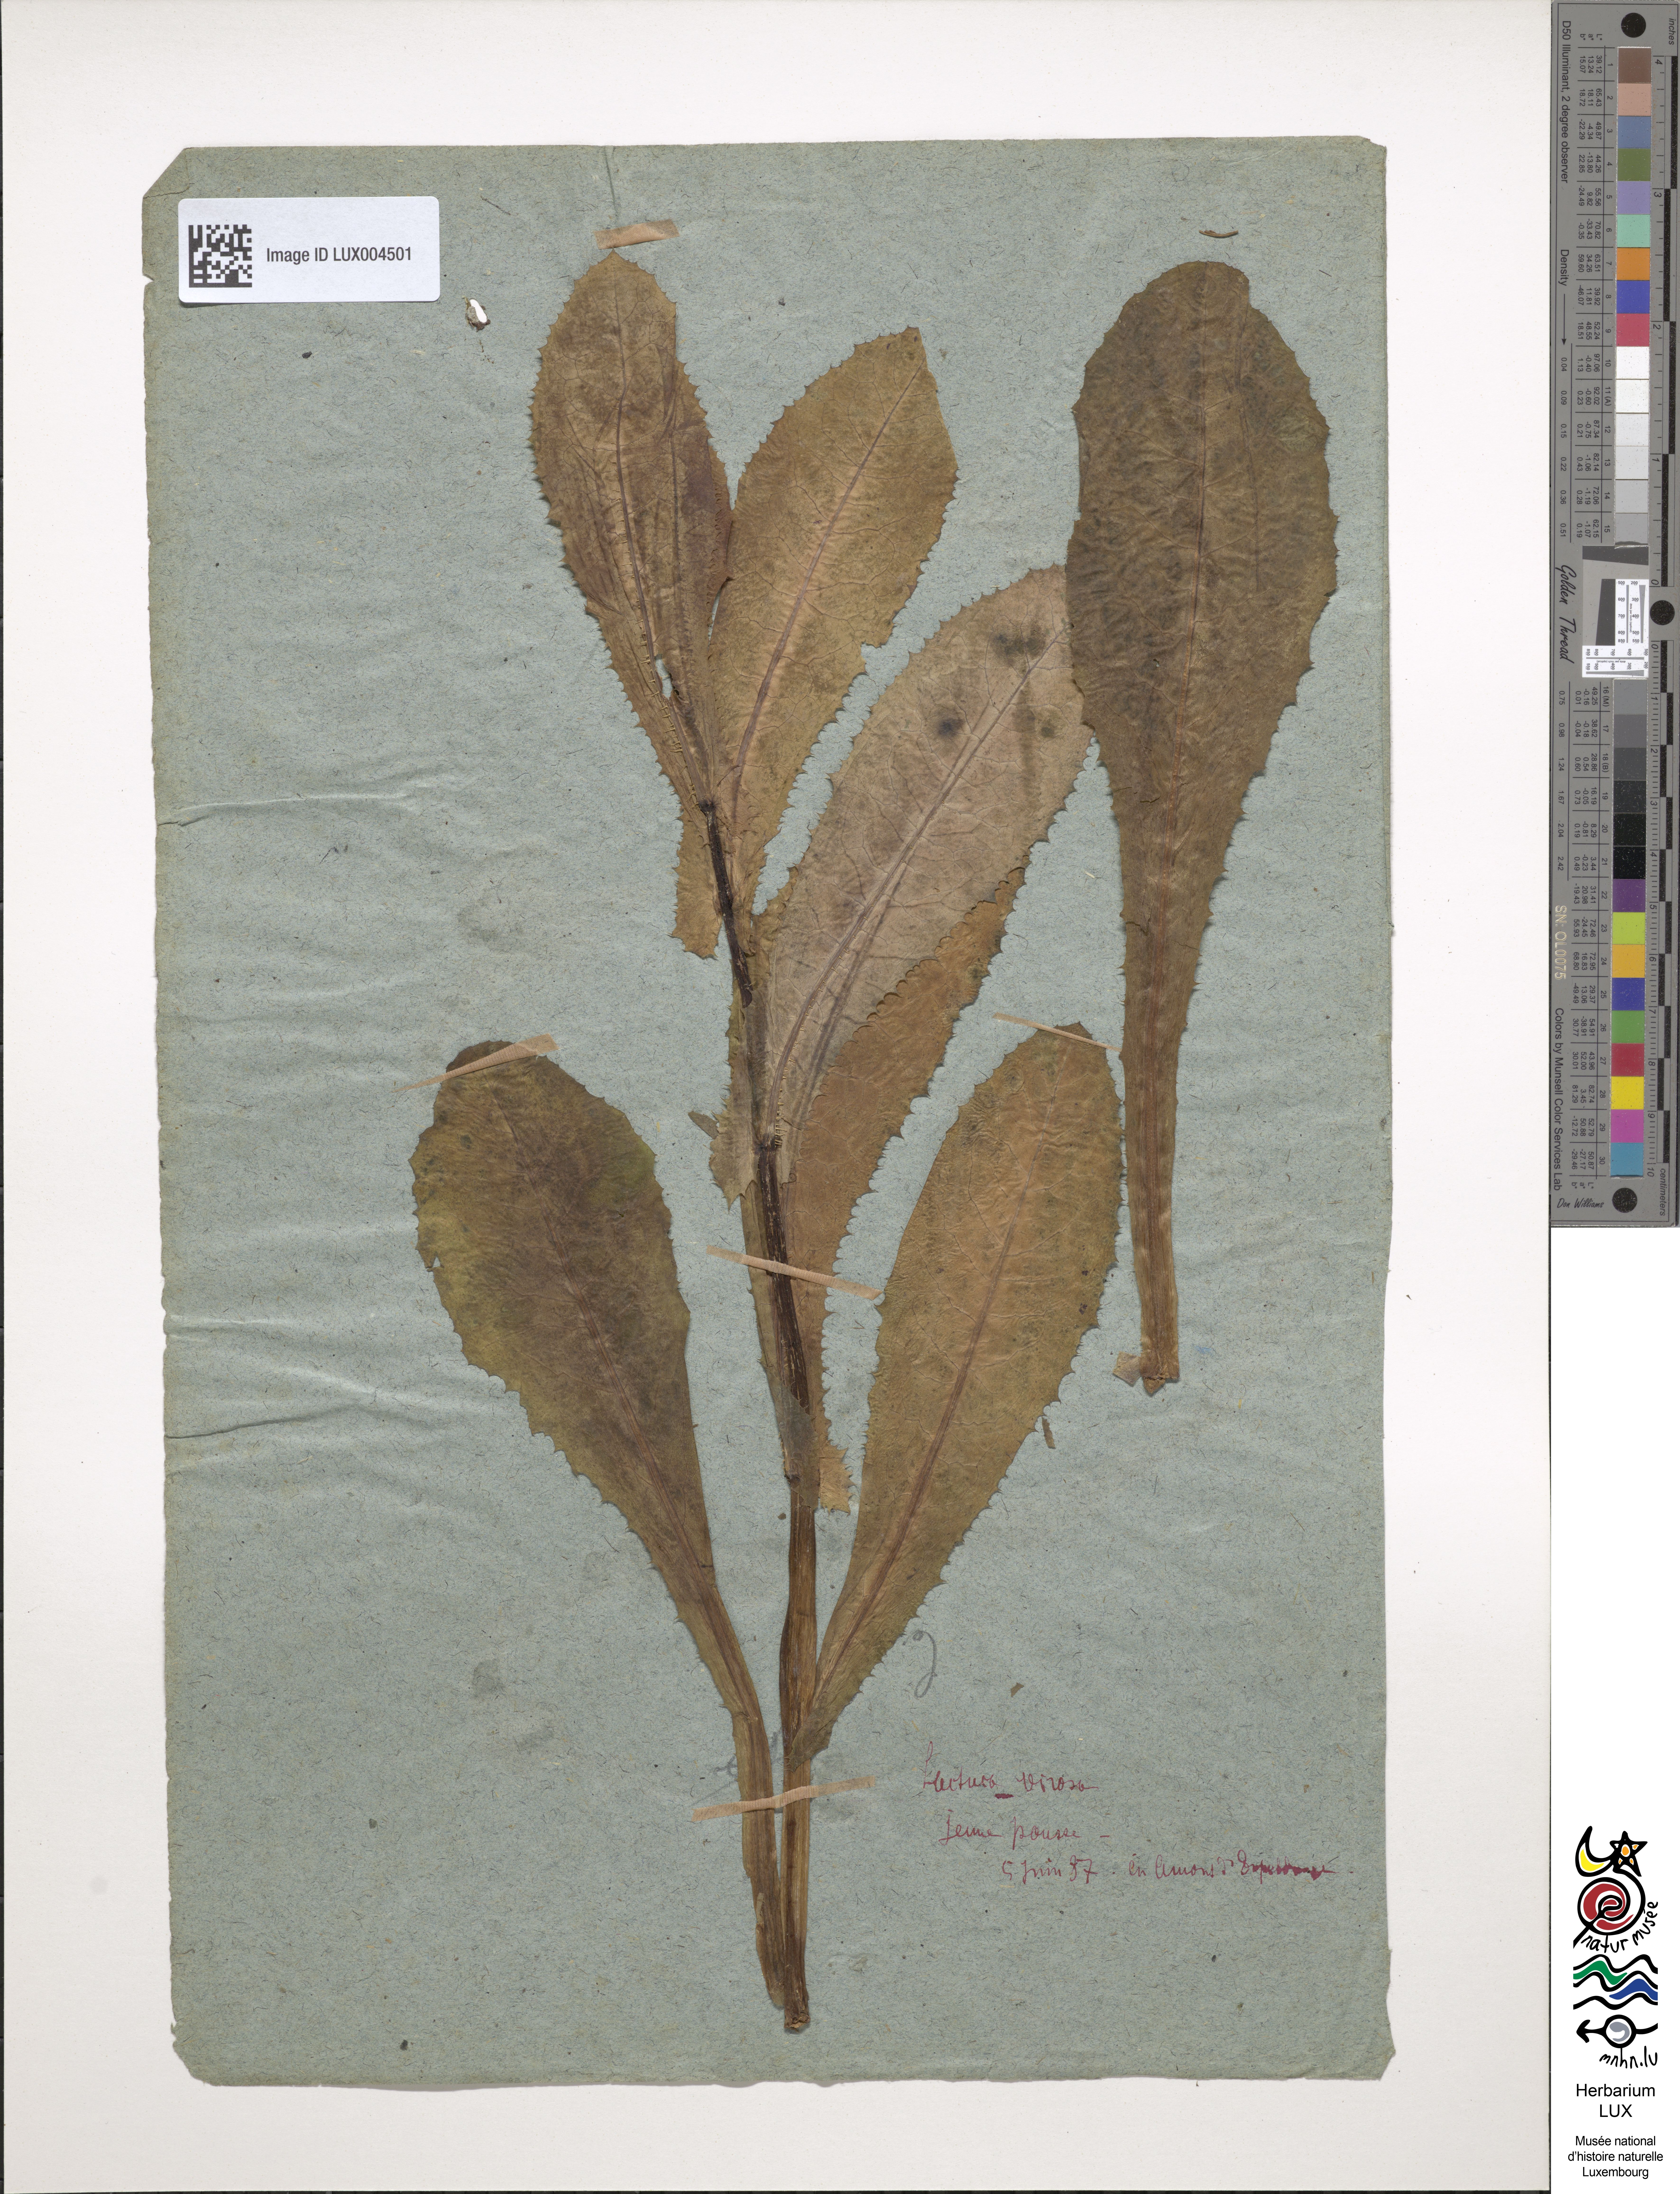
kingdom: Plantae
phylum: Tracheophyta
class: Magnoliopsida
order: Asterales
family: Asteraceae
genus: Lactuca
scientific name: Lactuca virosa
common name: Great lettuce
